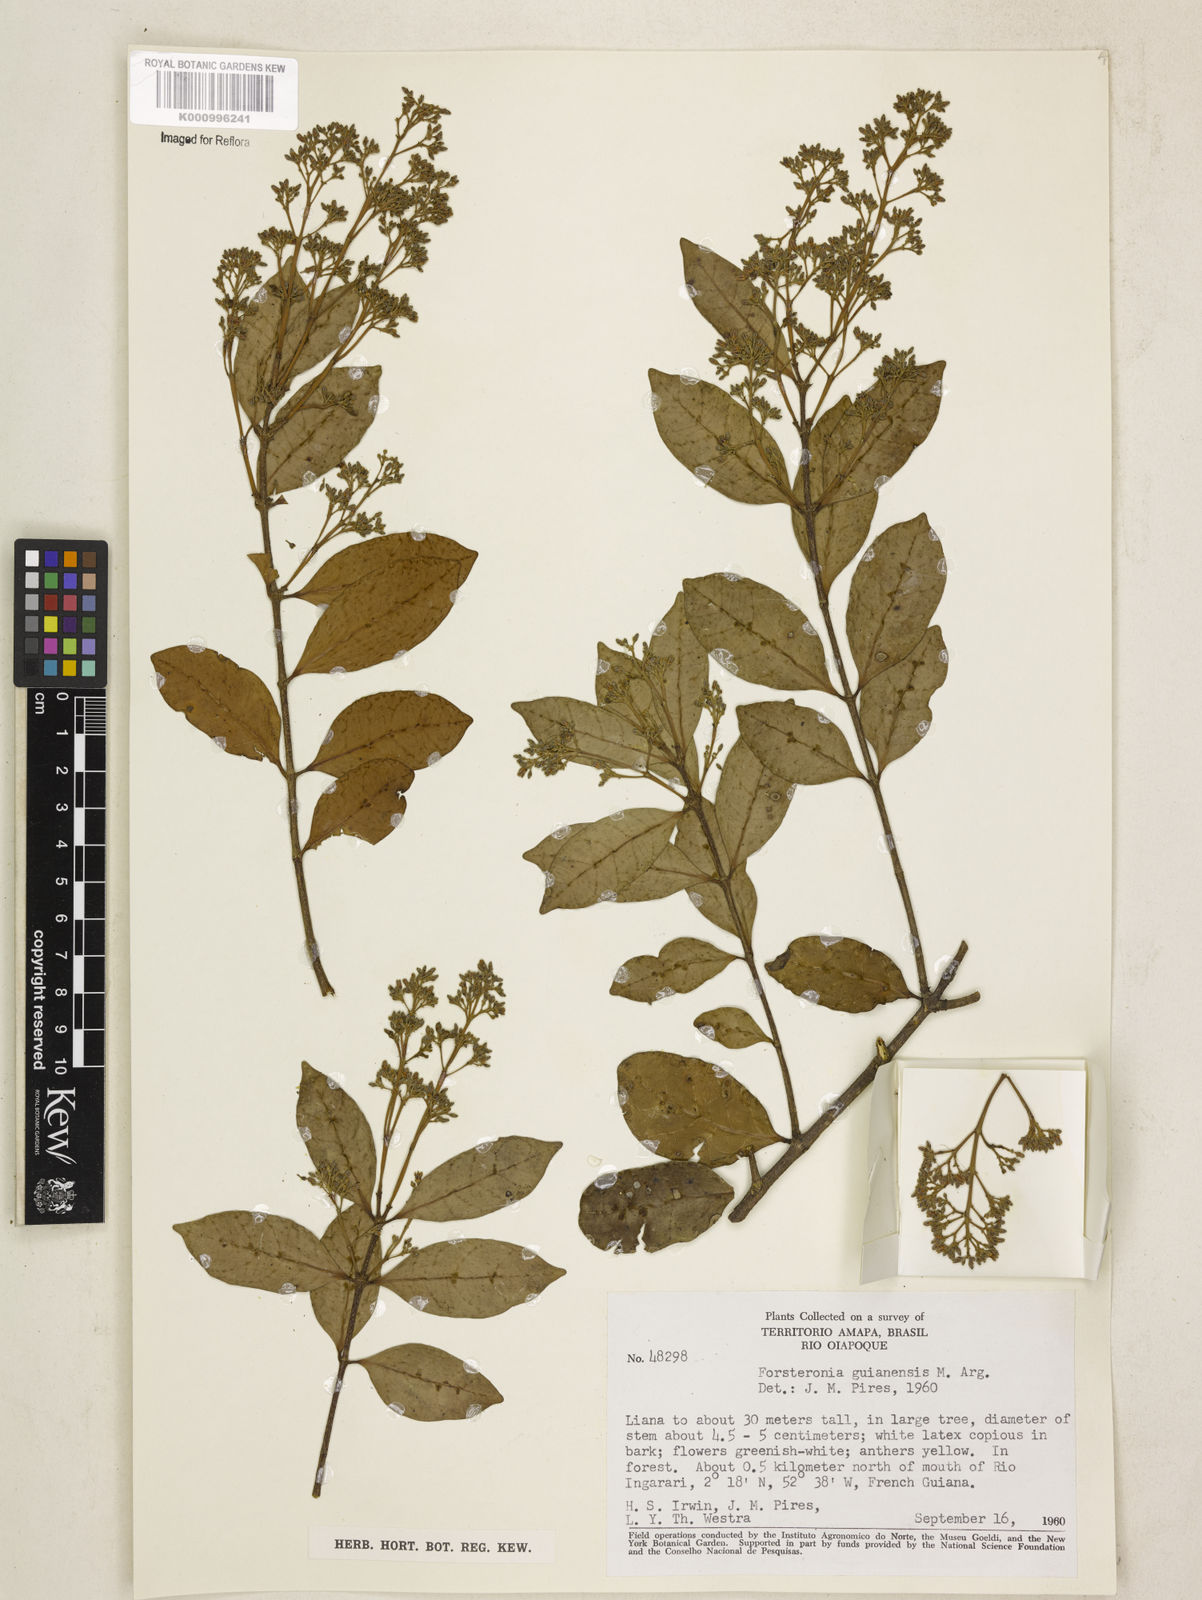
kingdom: Plantae
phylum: Tracheophyta
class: Magnoliopsida
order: Gentianales
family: Apocynaceae
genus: Forsteronia
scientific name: Forsteronia
